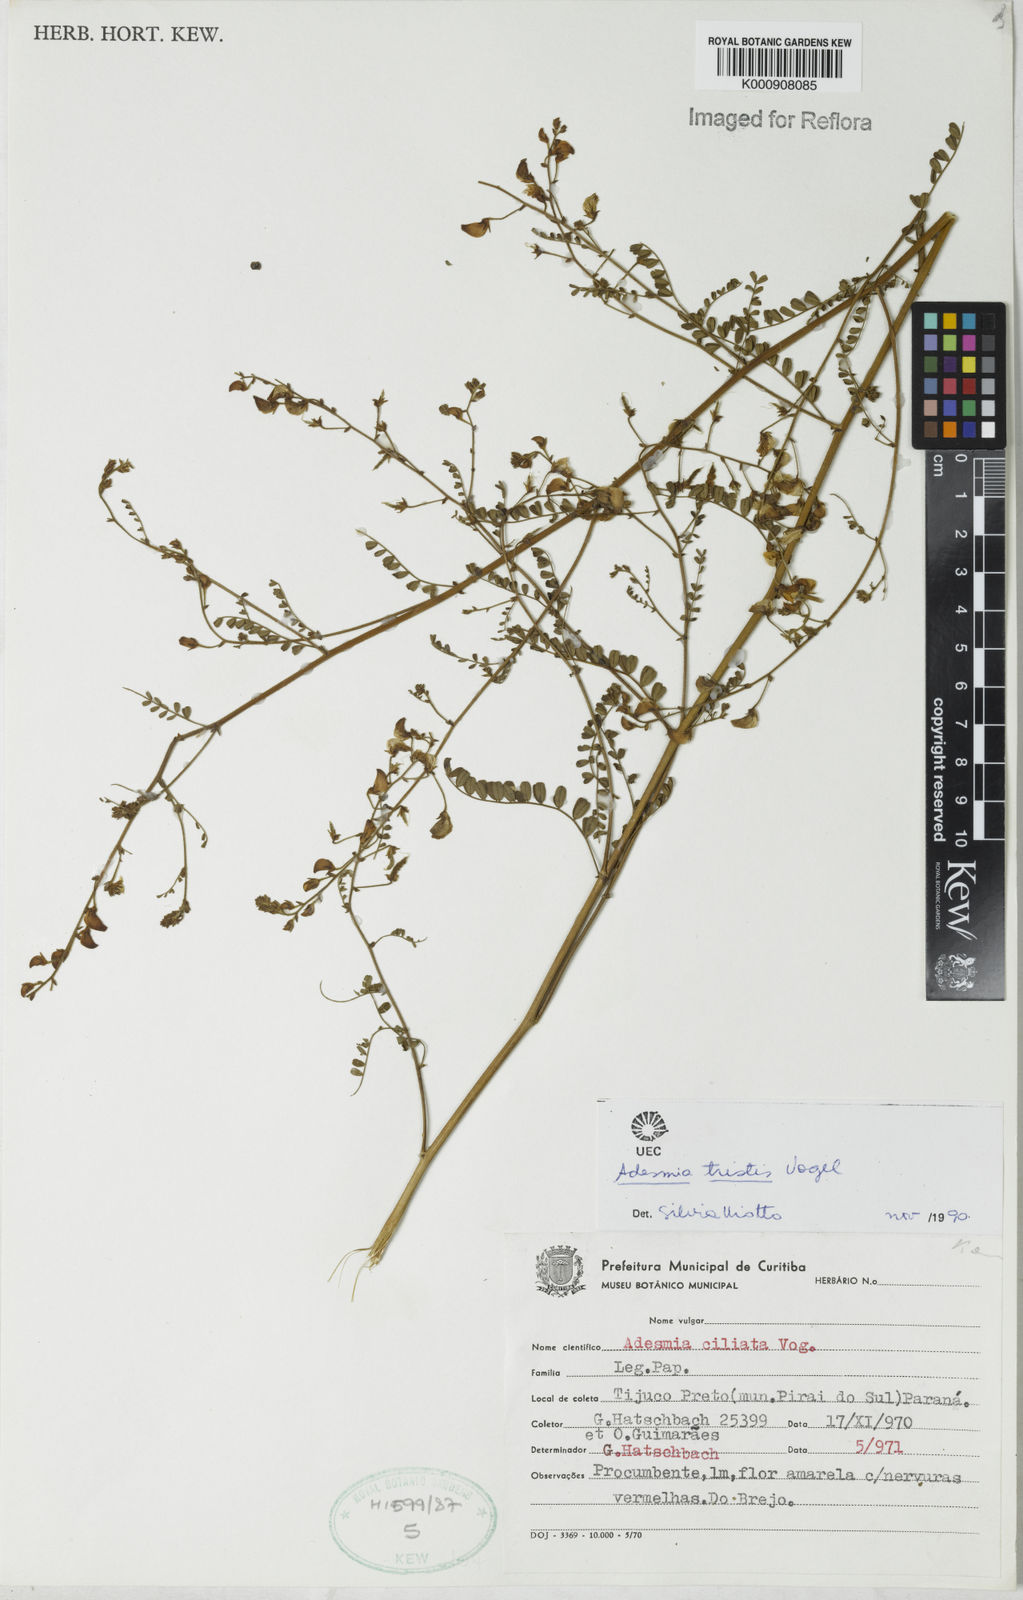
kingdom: Plantae
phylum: Tracheophyta
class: Magnoliopsida
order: Fabales
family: Fabaceae
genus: Adesmia
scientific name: Adesmia tristis
